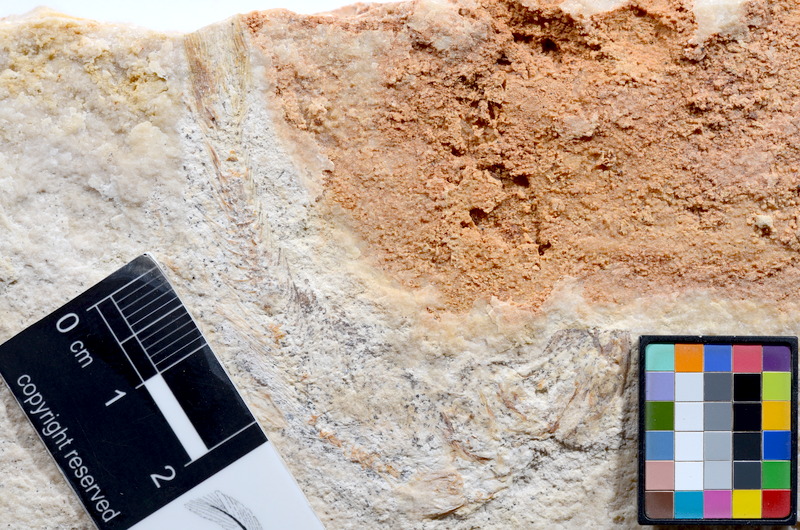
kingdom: Animalia
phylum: Chordata
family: Ascalaboidae
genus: Tharsis
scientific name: Tharsis dubius
